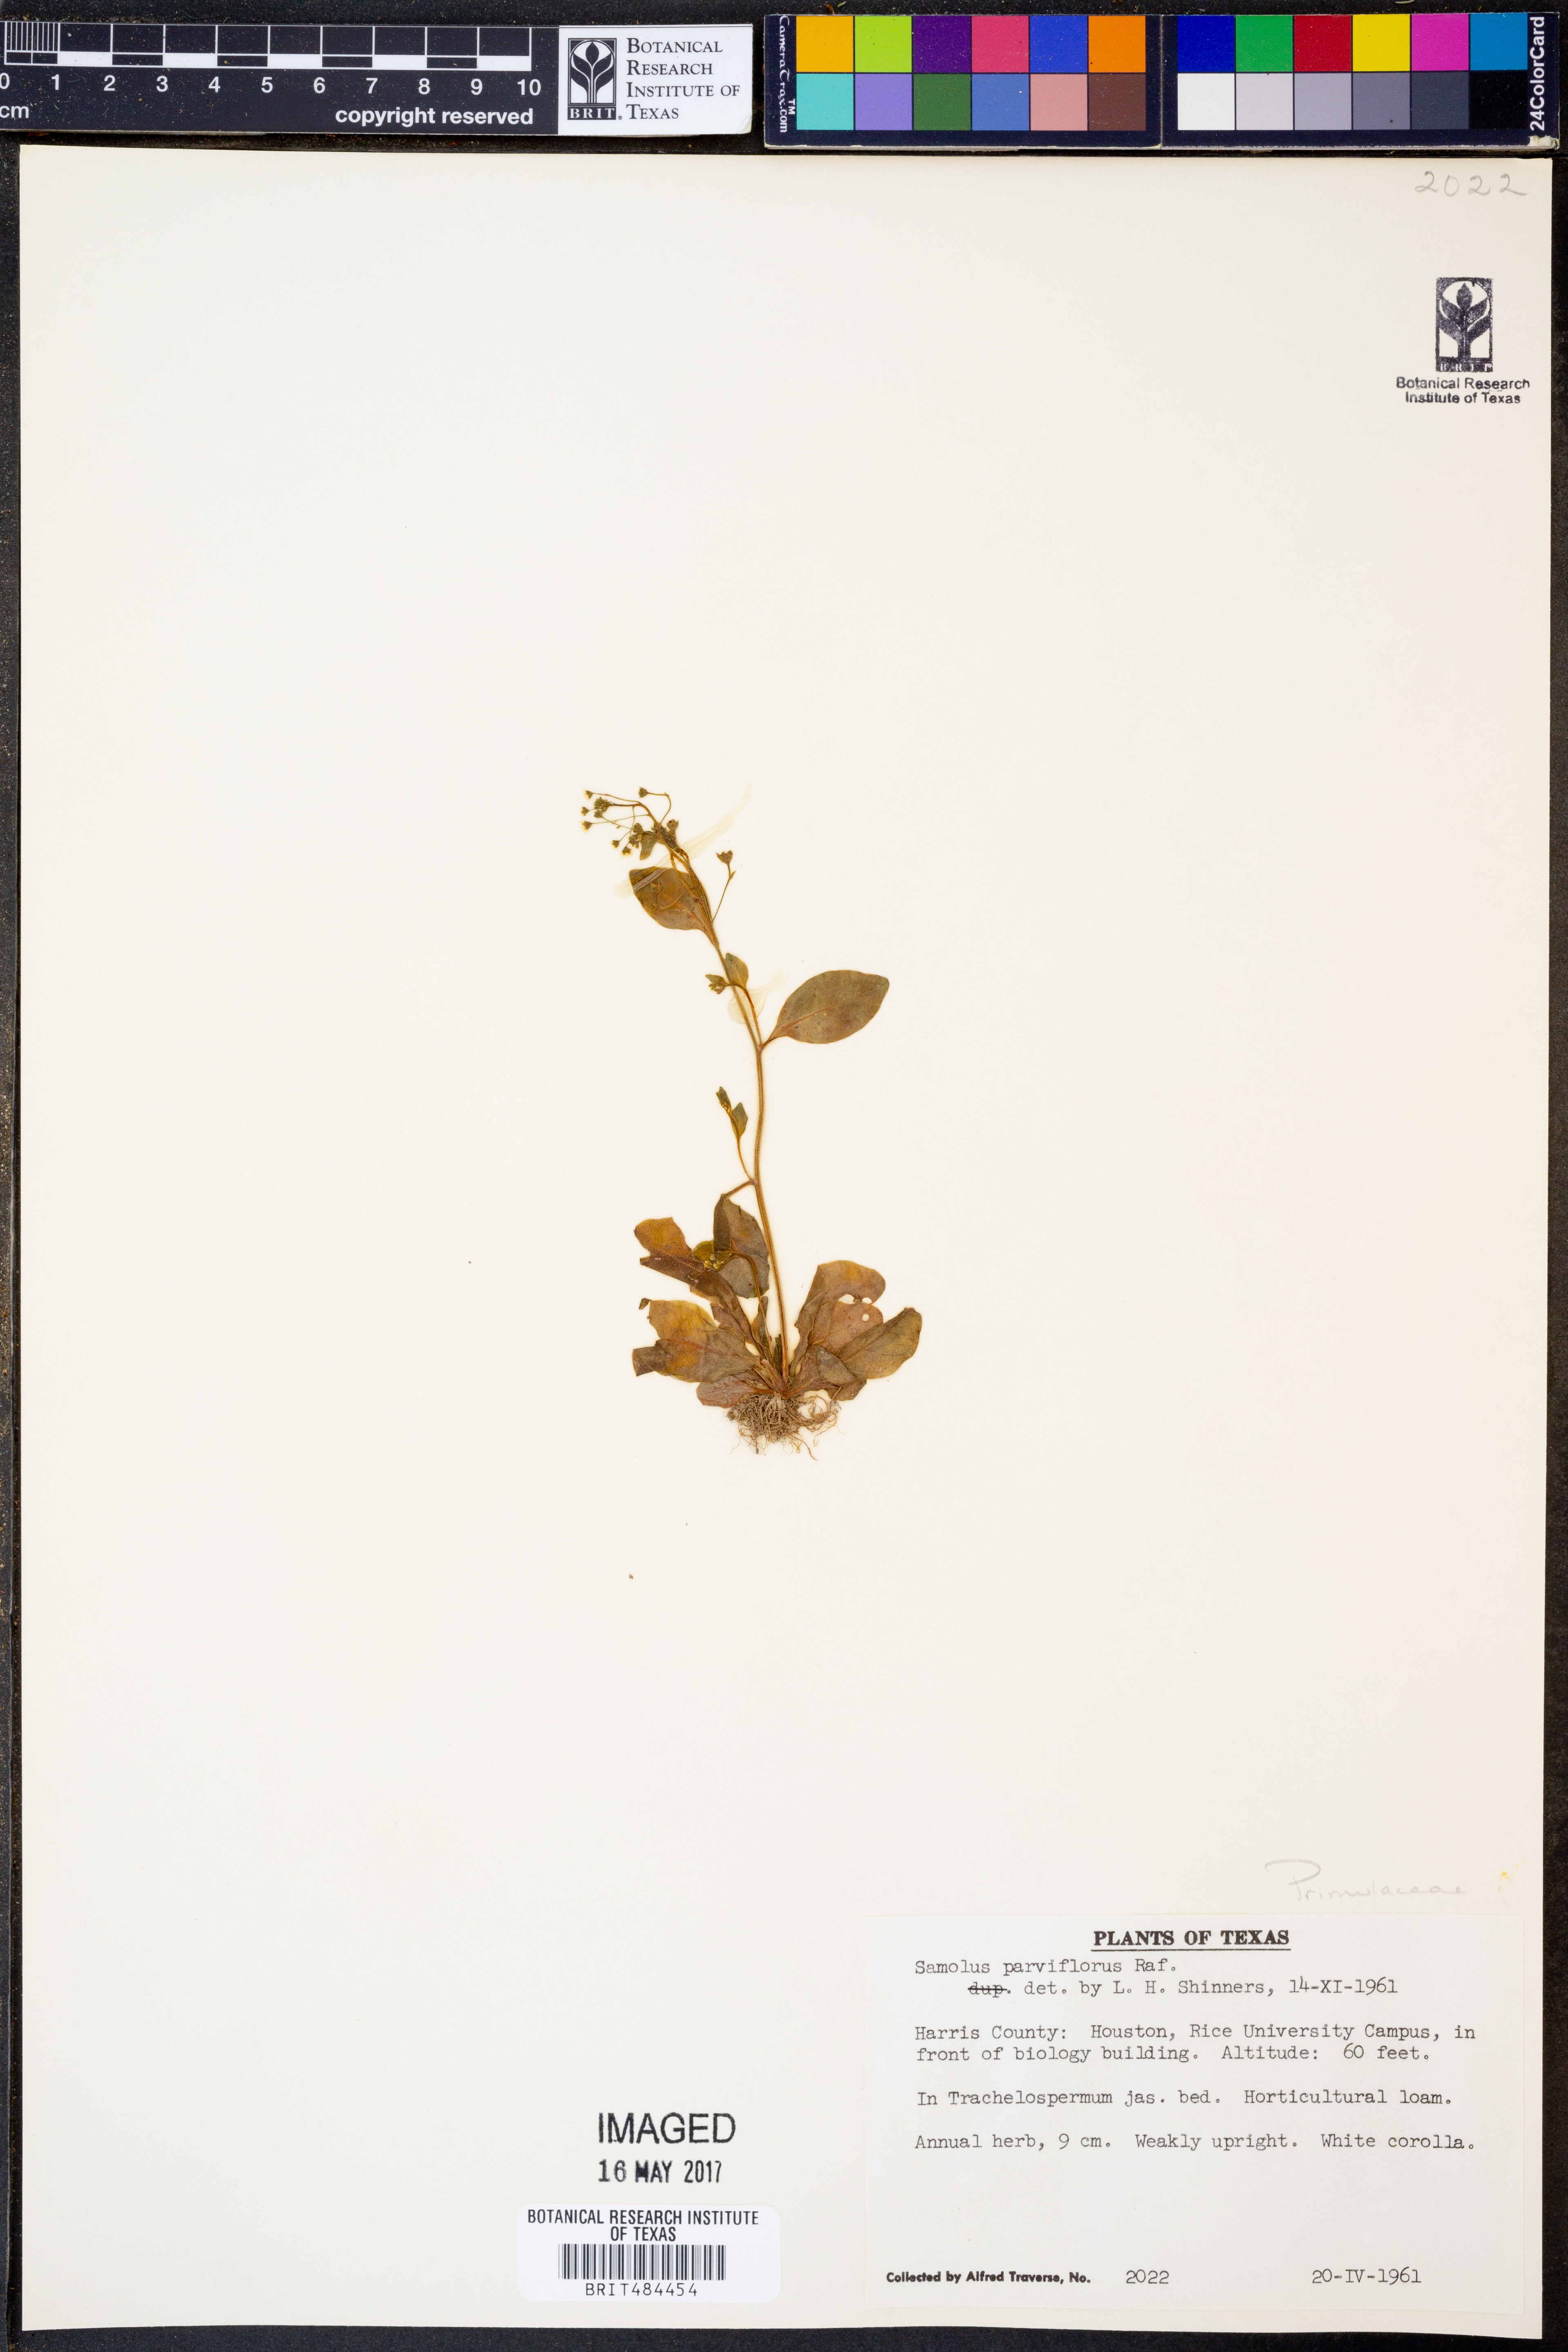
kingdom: Plantae
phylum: Tracheophyta
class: Magnoliopsida
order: Ericales
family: Primulaceae
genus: Samolus
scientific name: Samolus parviflorus
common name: False water pimpernel
